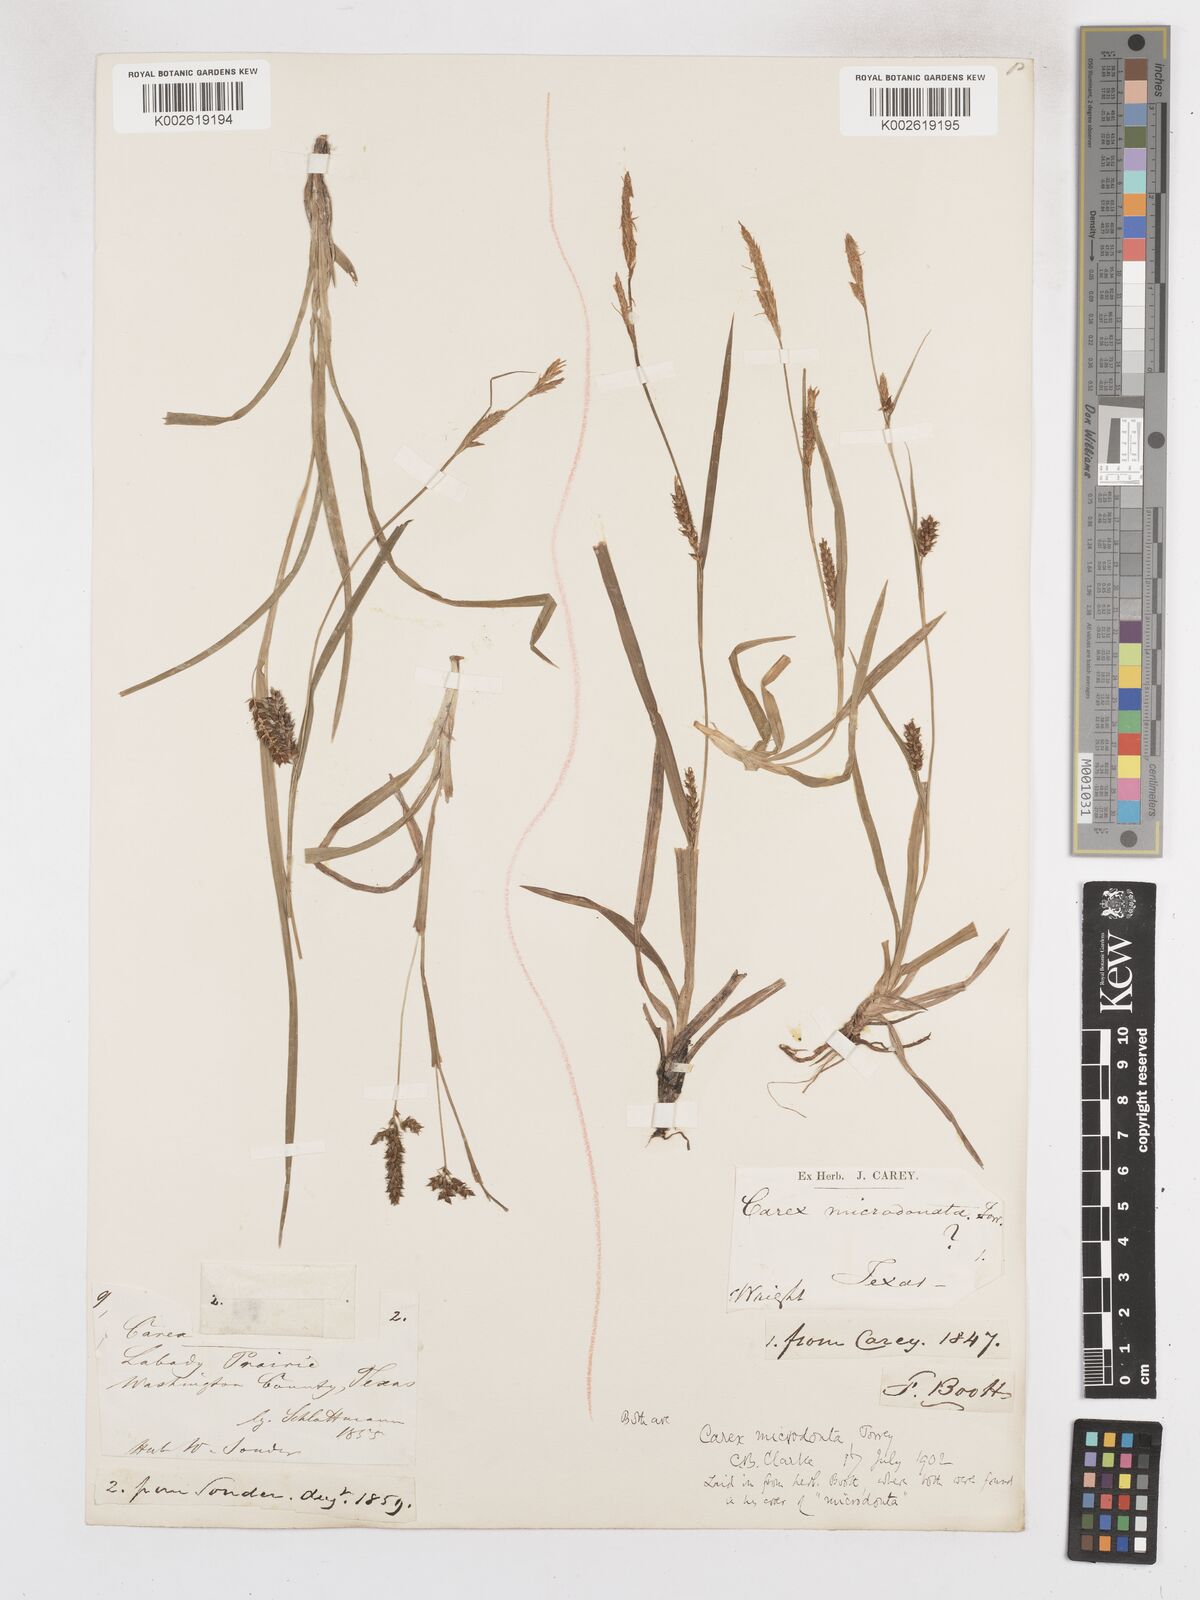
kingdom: Plantae
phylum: Tracheophyta
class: Liliopsida
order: Poales
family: Cyperaceae
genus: Carex
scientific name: Carex microdonta
